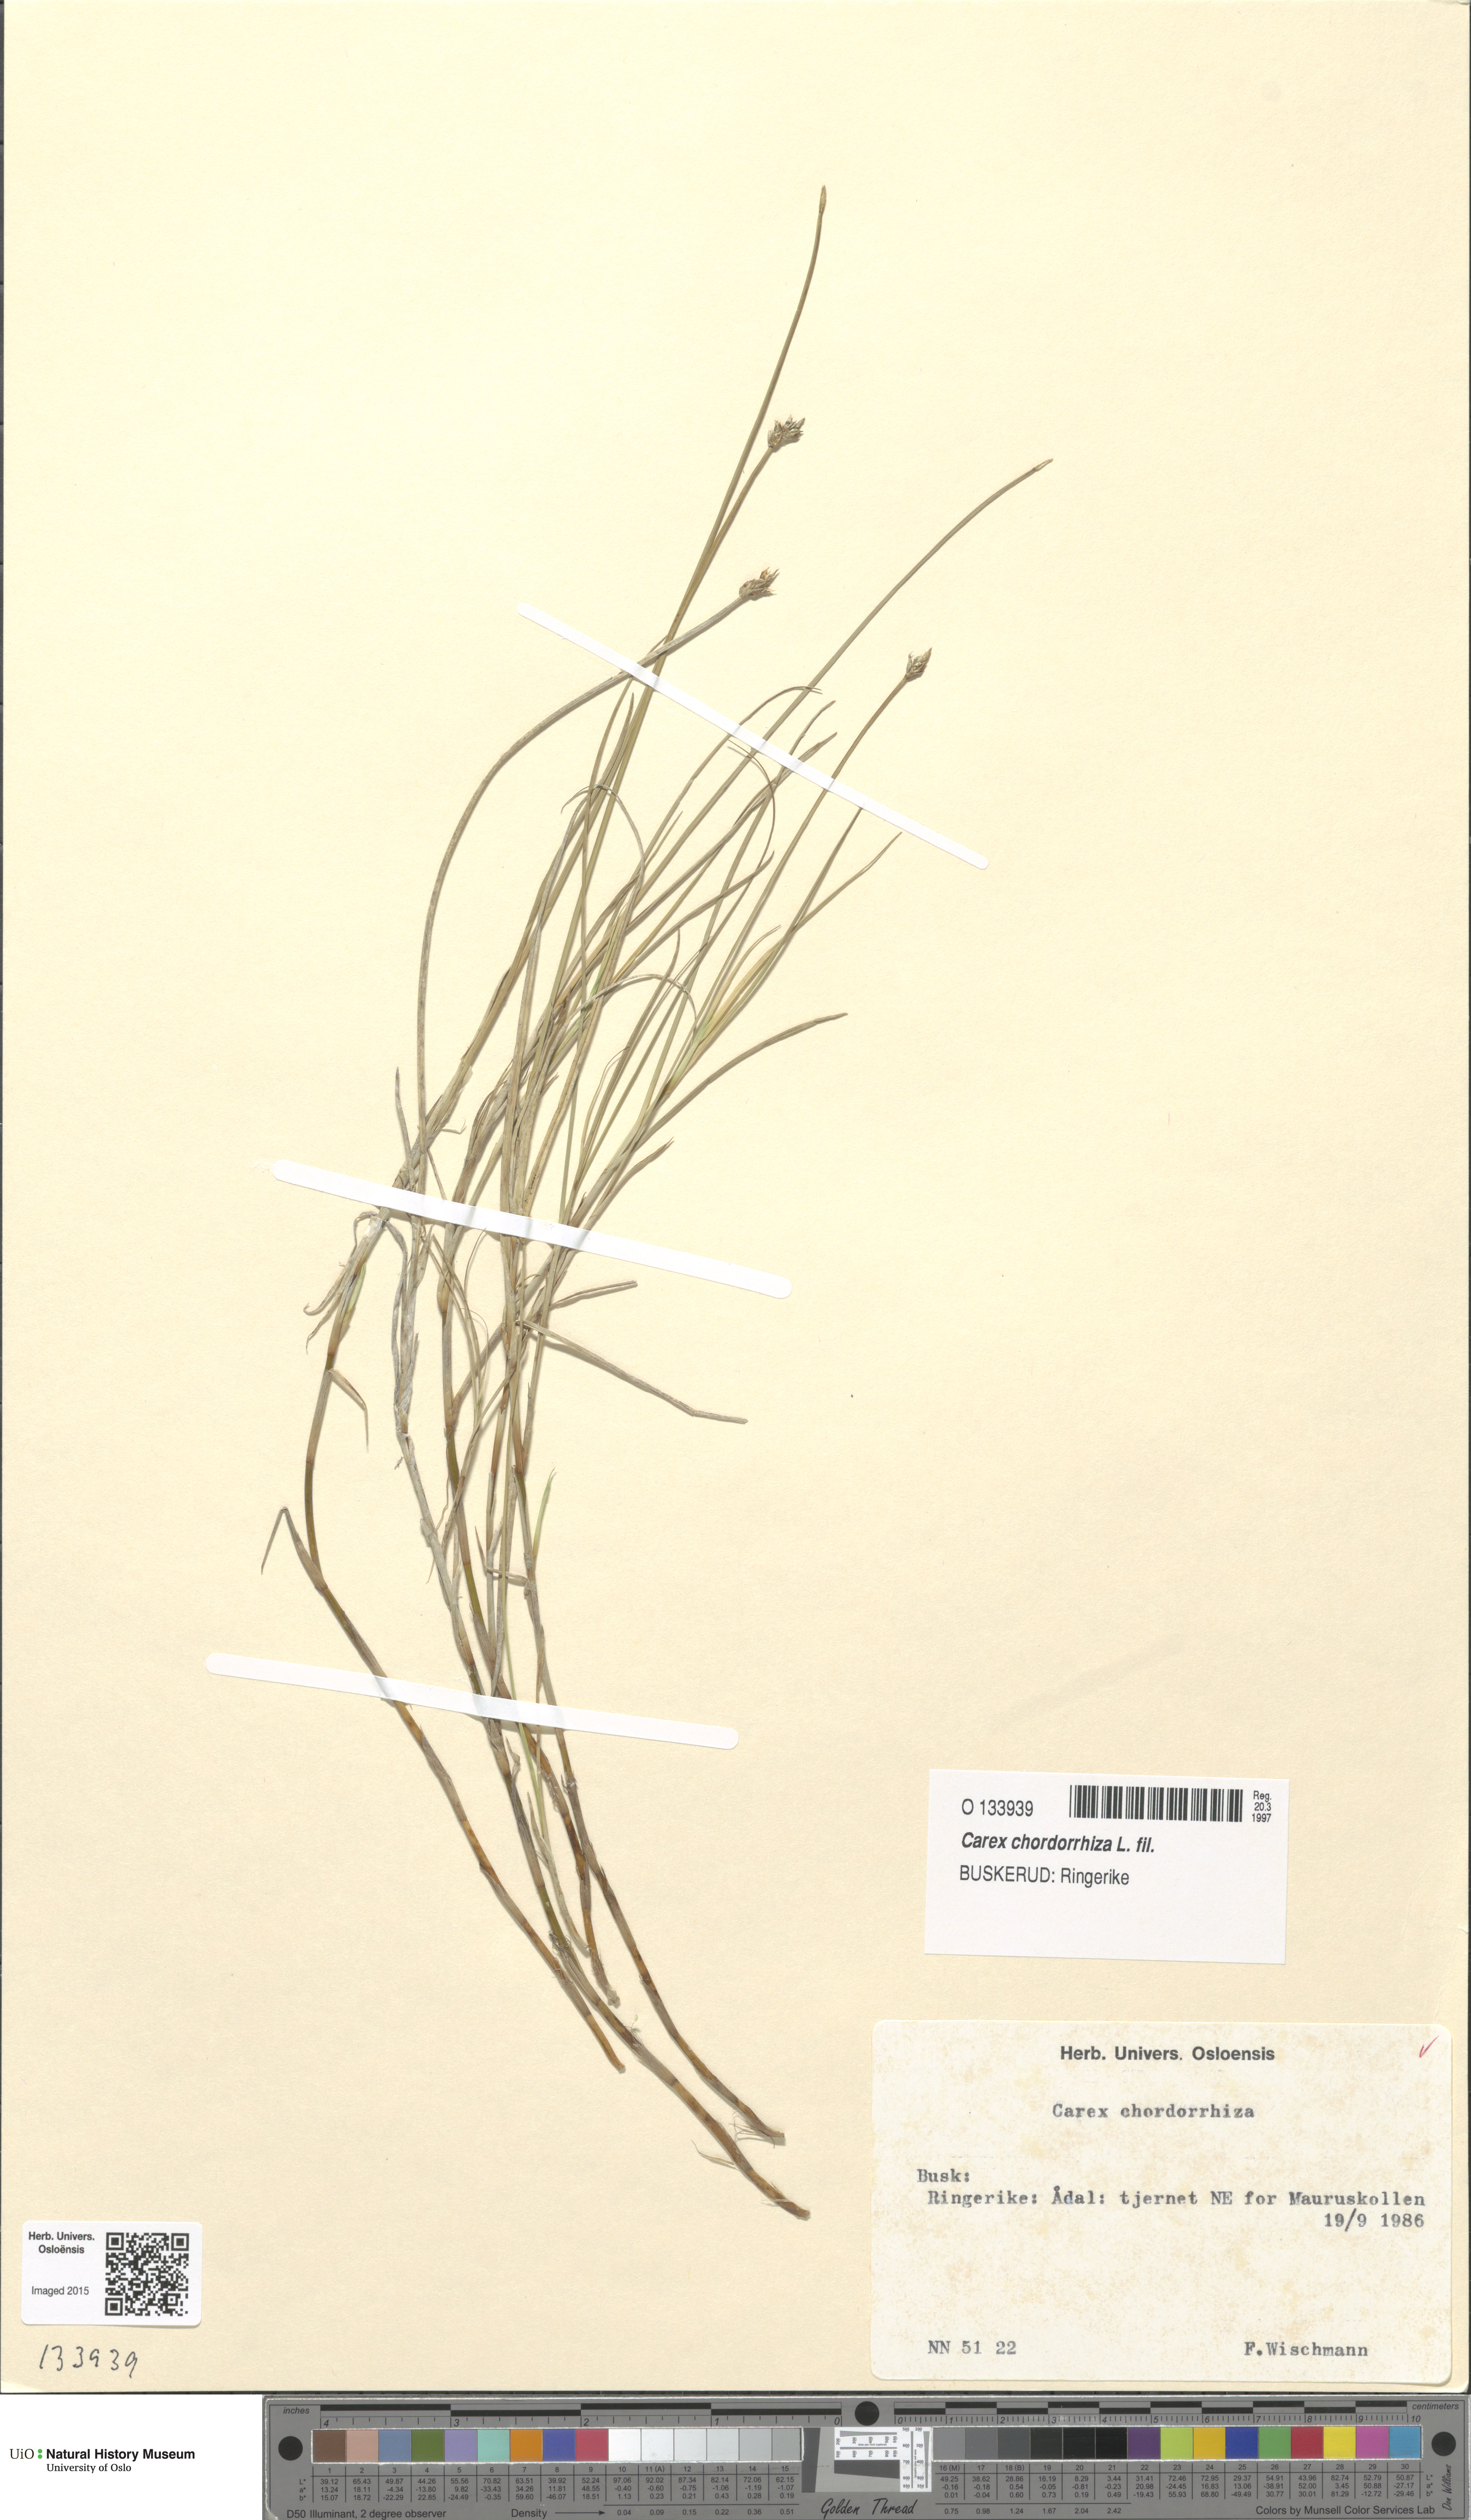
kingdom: Plantae
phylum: Tracheophyta
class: Liliopsida
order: Poales
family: Cyperaceae
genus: Carex
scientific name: Carex chordorrhiza
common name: String sedge
